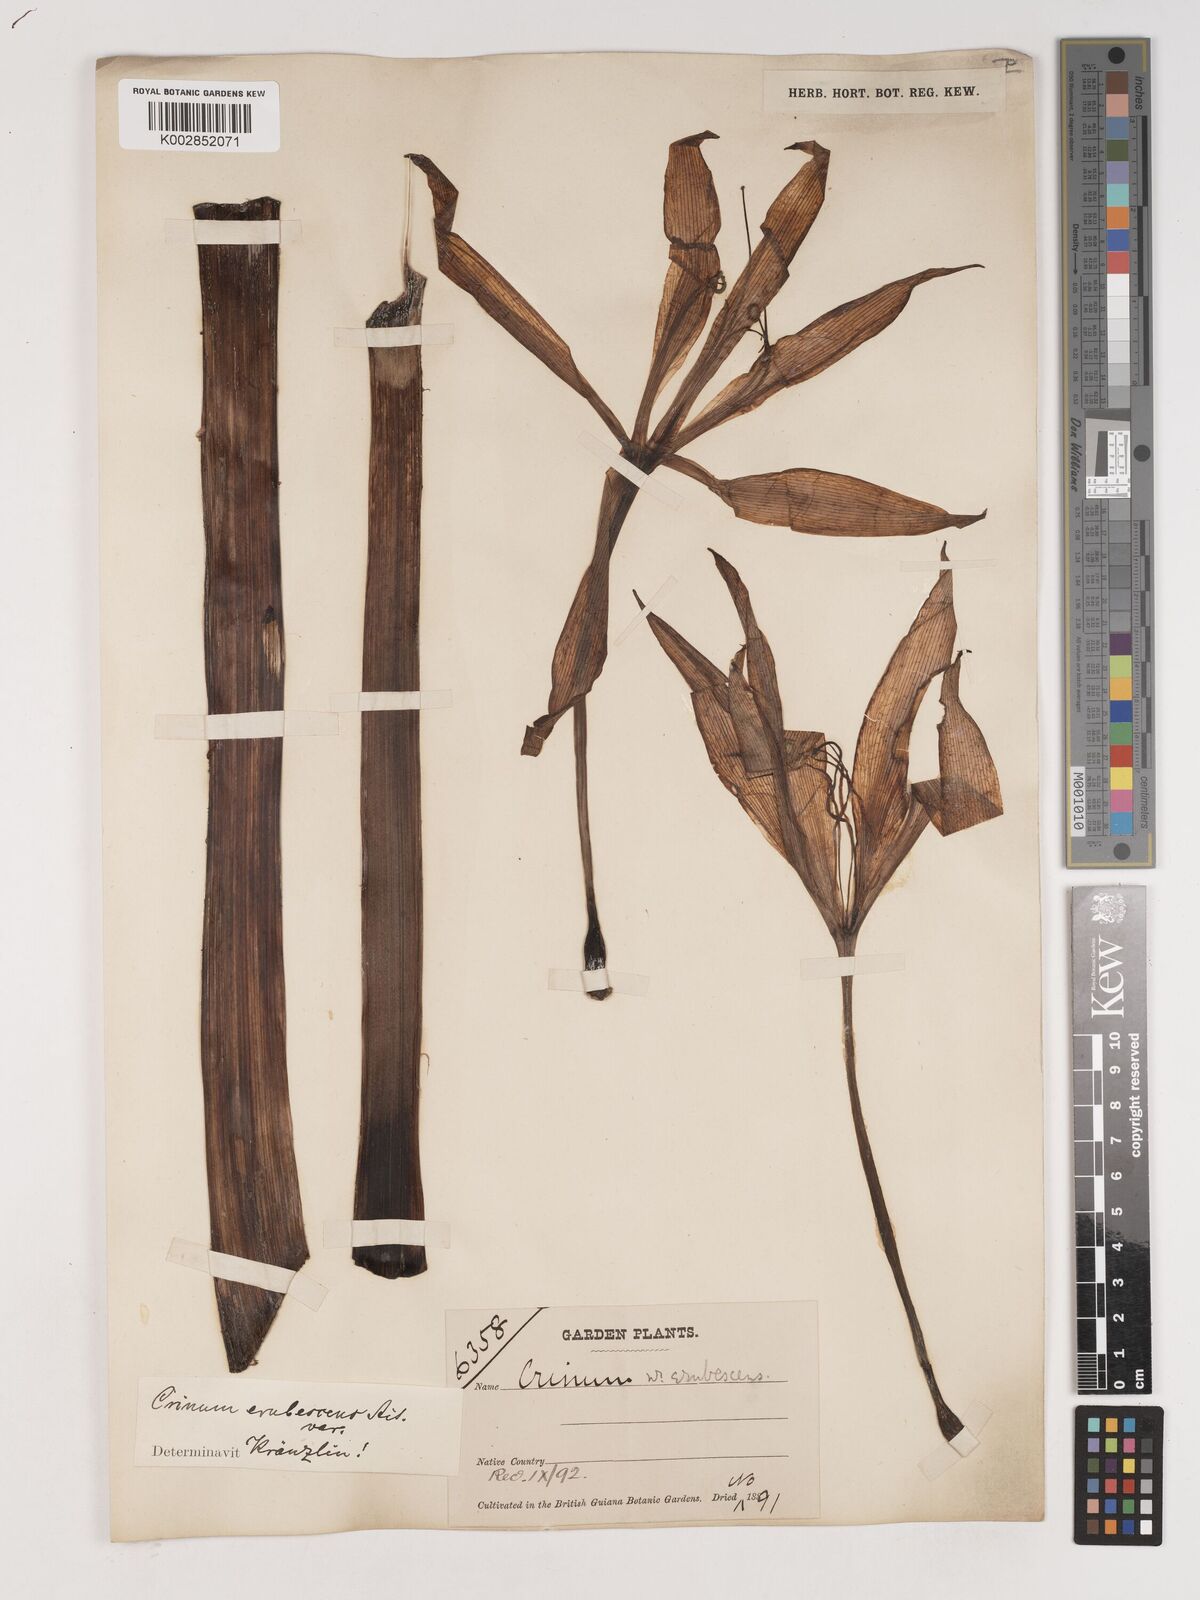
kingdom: Plantae
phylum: Tracheophyta
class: Liliopsida
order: Asparagales
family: Amaryllidaceae
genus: Crinum
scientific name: Crinum amabile
